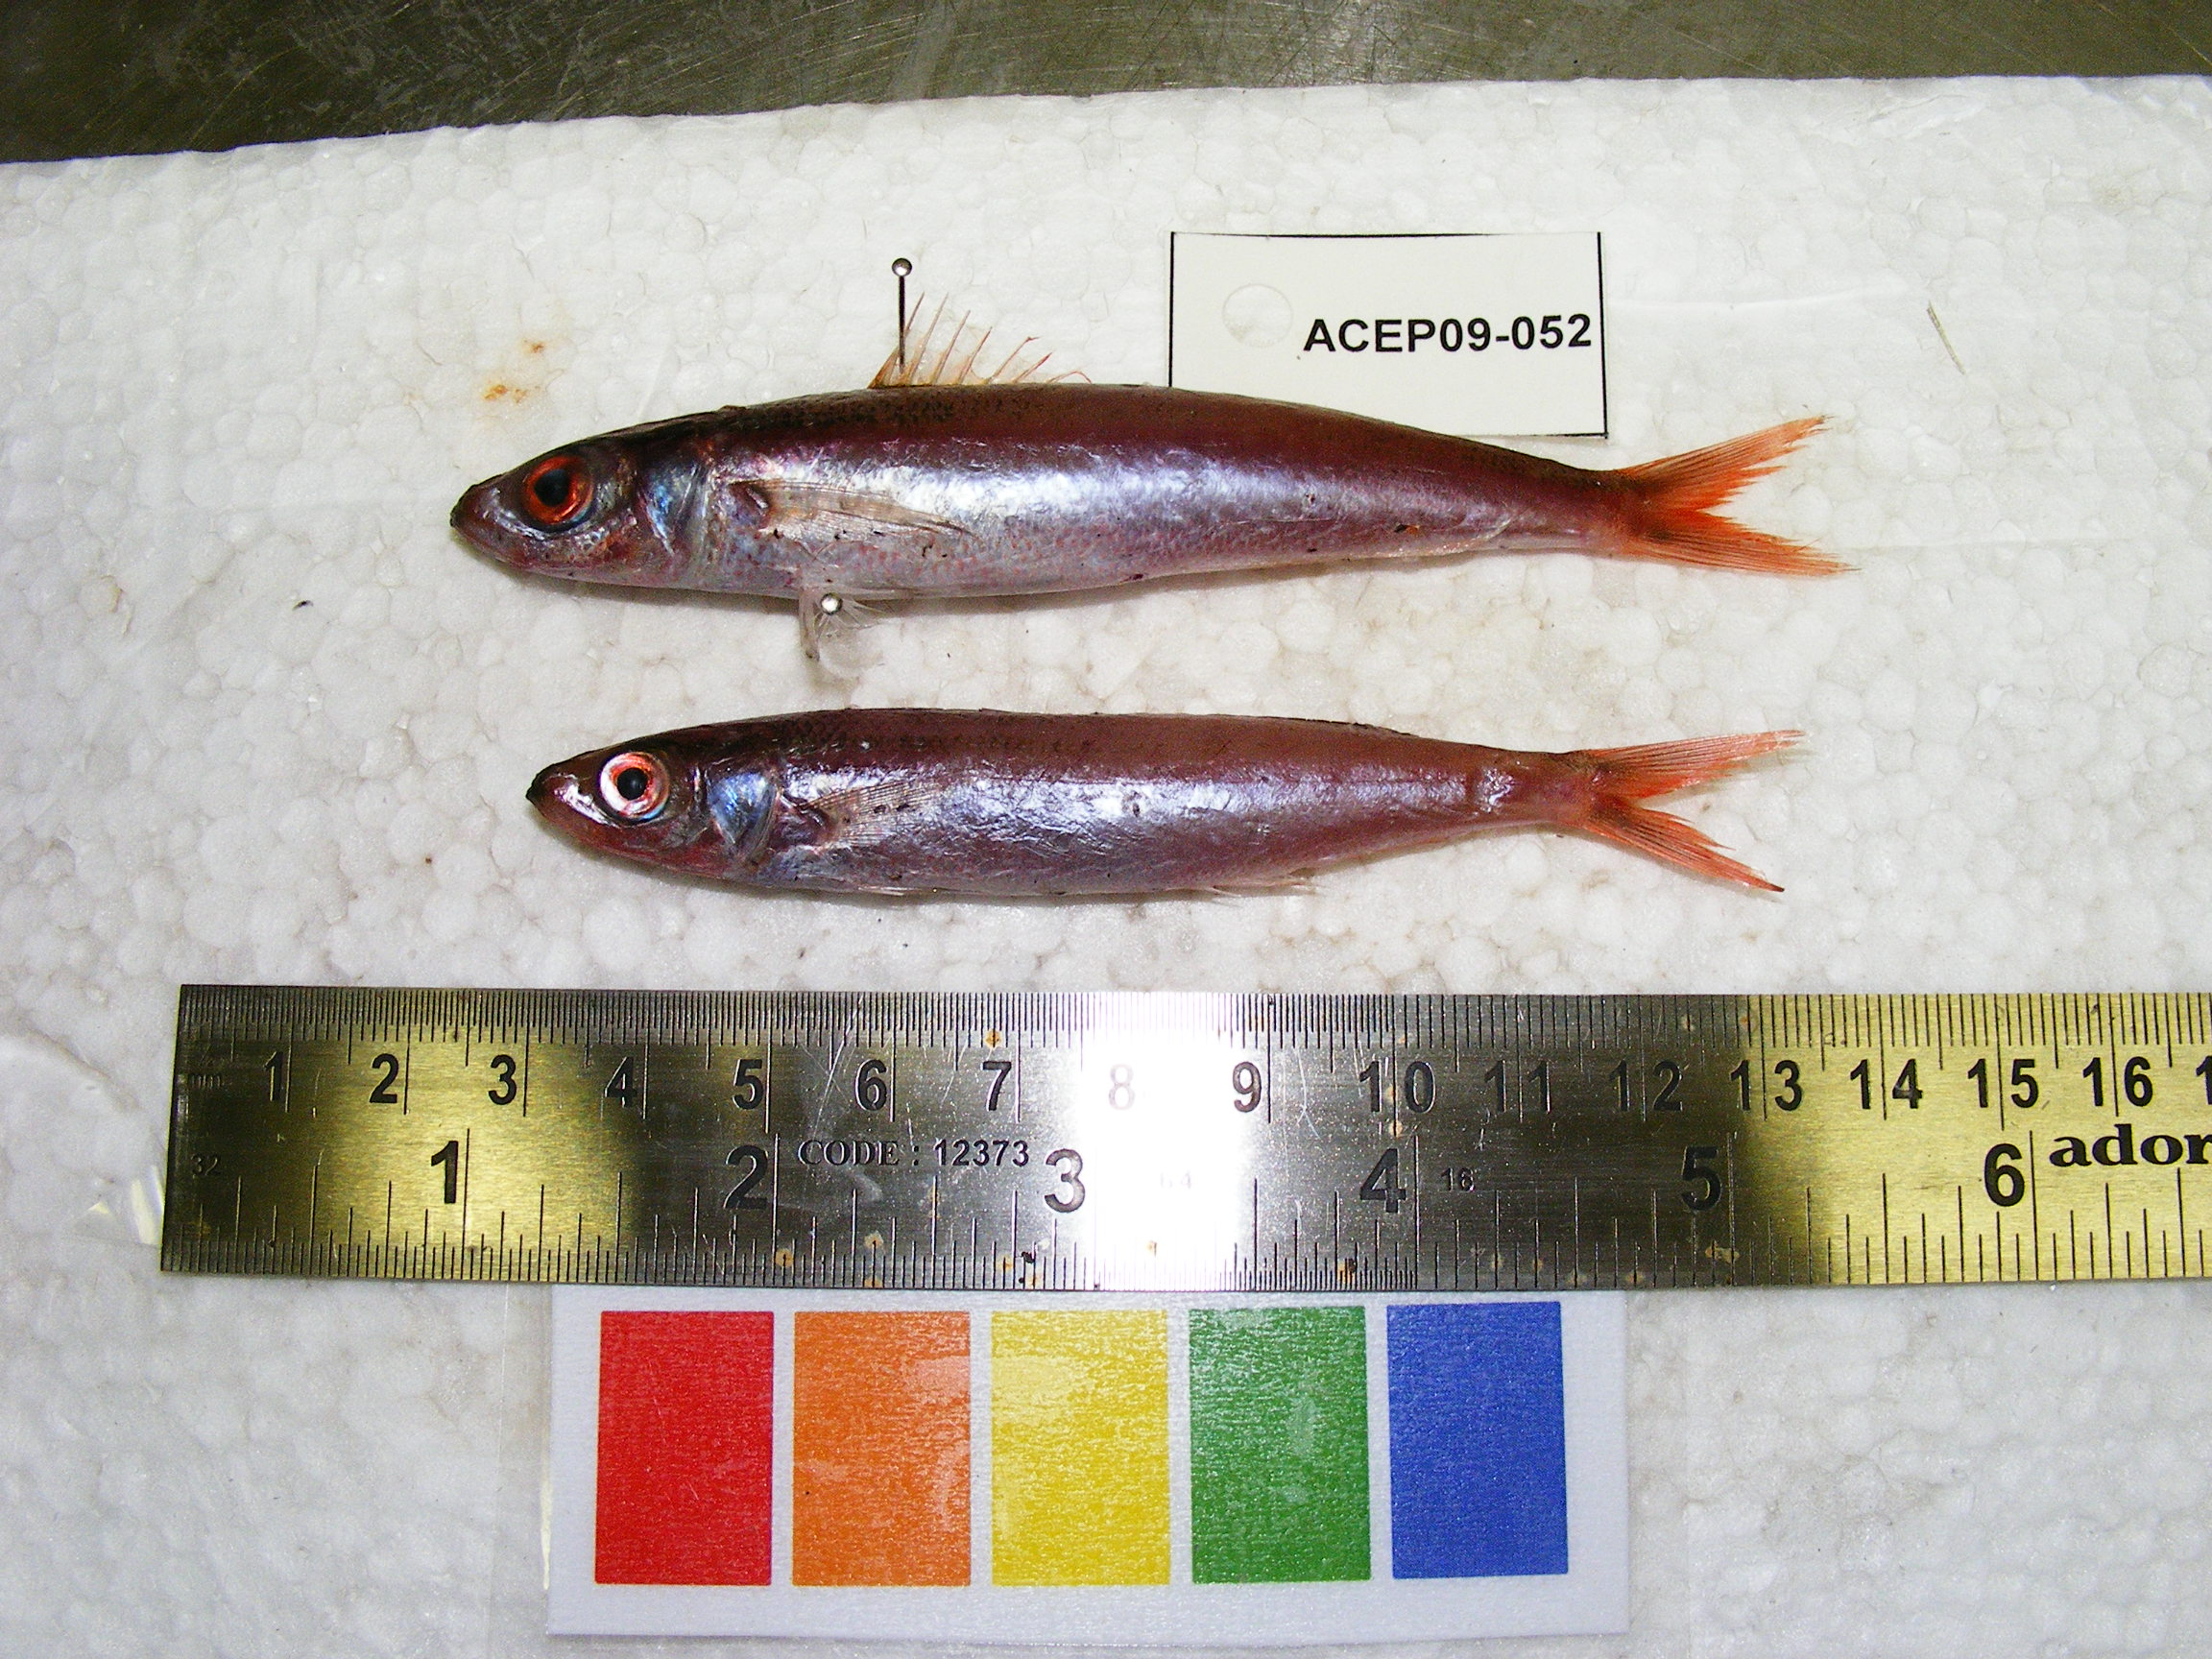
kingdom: Animalia
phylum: Chordata
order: Perciformes
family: Caesionidae
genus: Pterocaesio
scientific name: Pterocaesio
